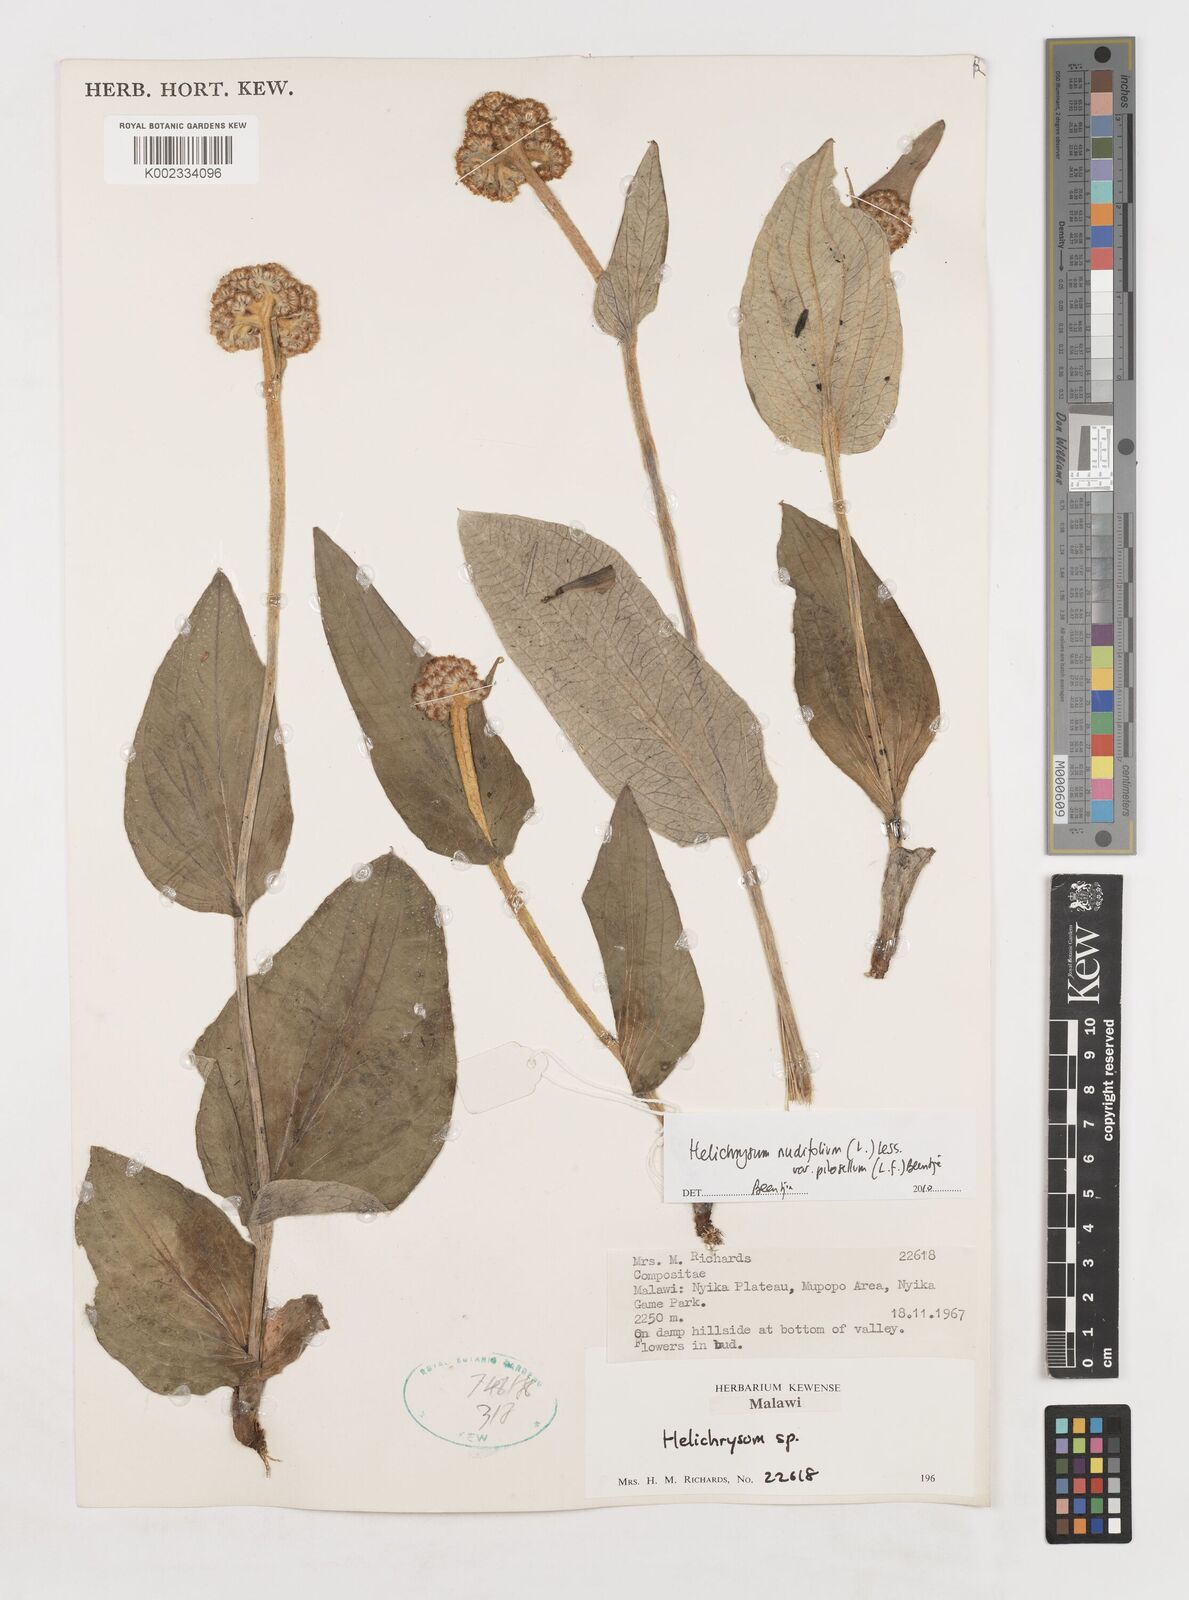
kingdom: Plantae
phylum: Tracheophyta
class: Magnoliopsida
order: Asterales
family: Asteraceae
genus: Helichrysum
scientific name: Helichrysum nudifolium
